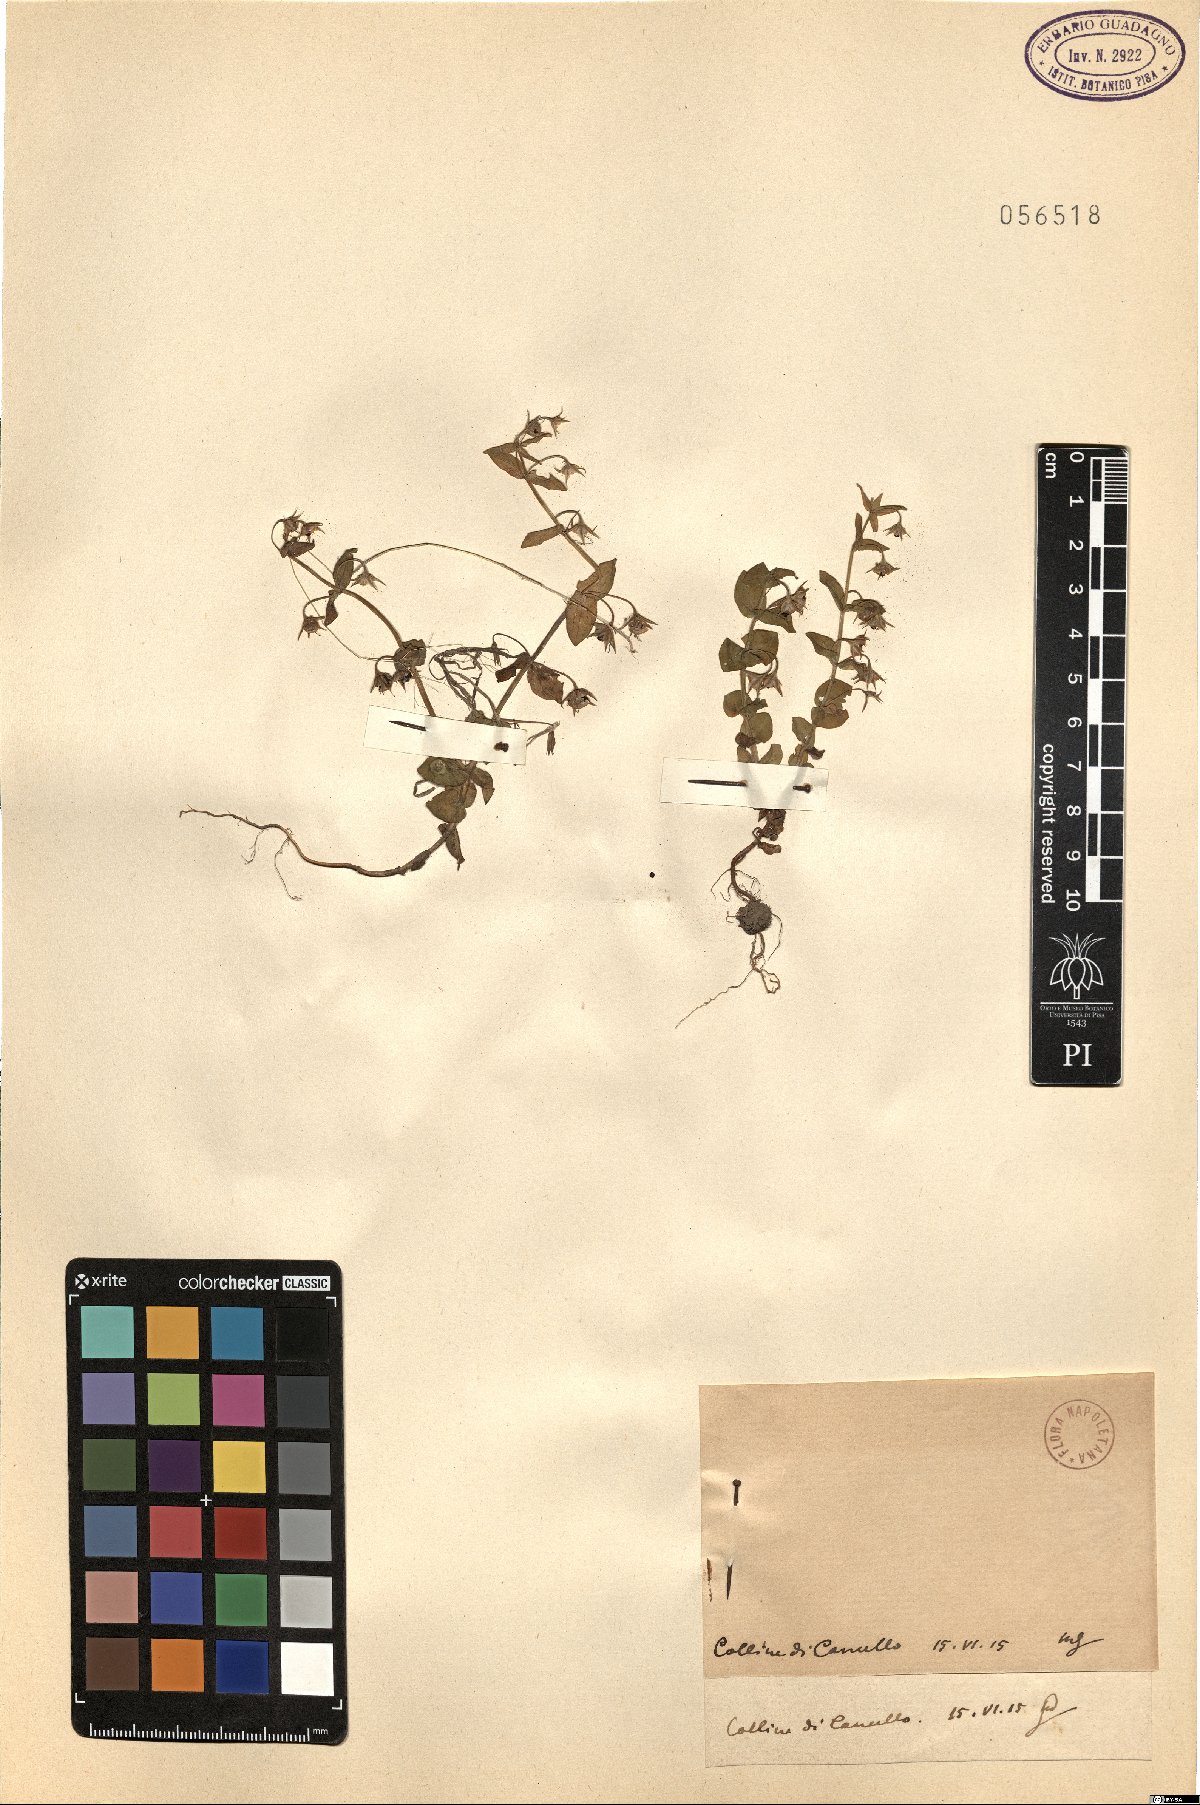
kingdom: Plantae
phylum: Tracheophyta
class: Magnoliopsida
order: Ericales
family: Primulaceae
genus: Lysimachia
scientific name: Lysimachia Anagallis spec
